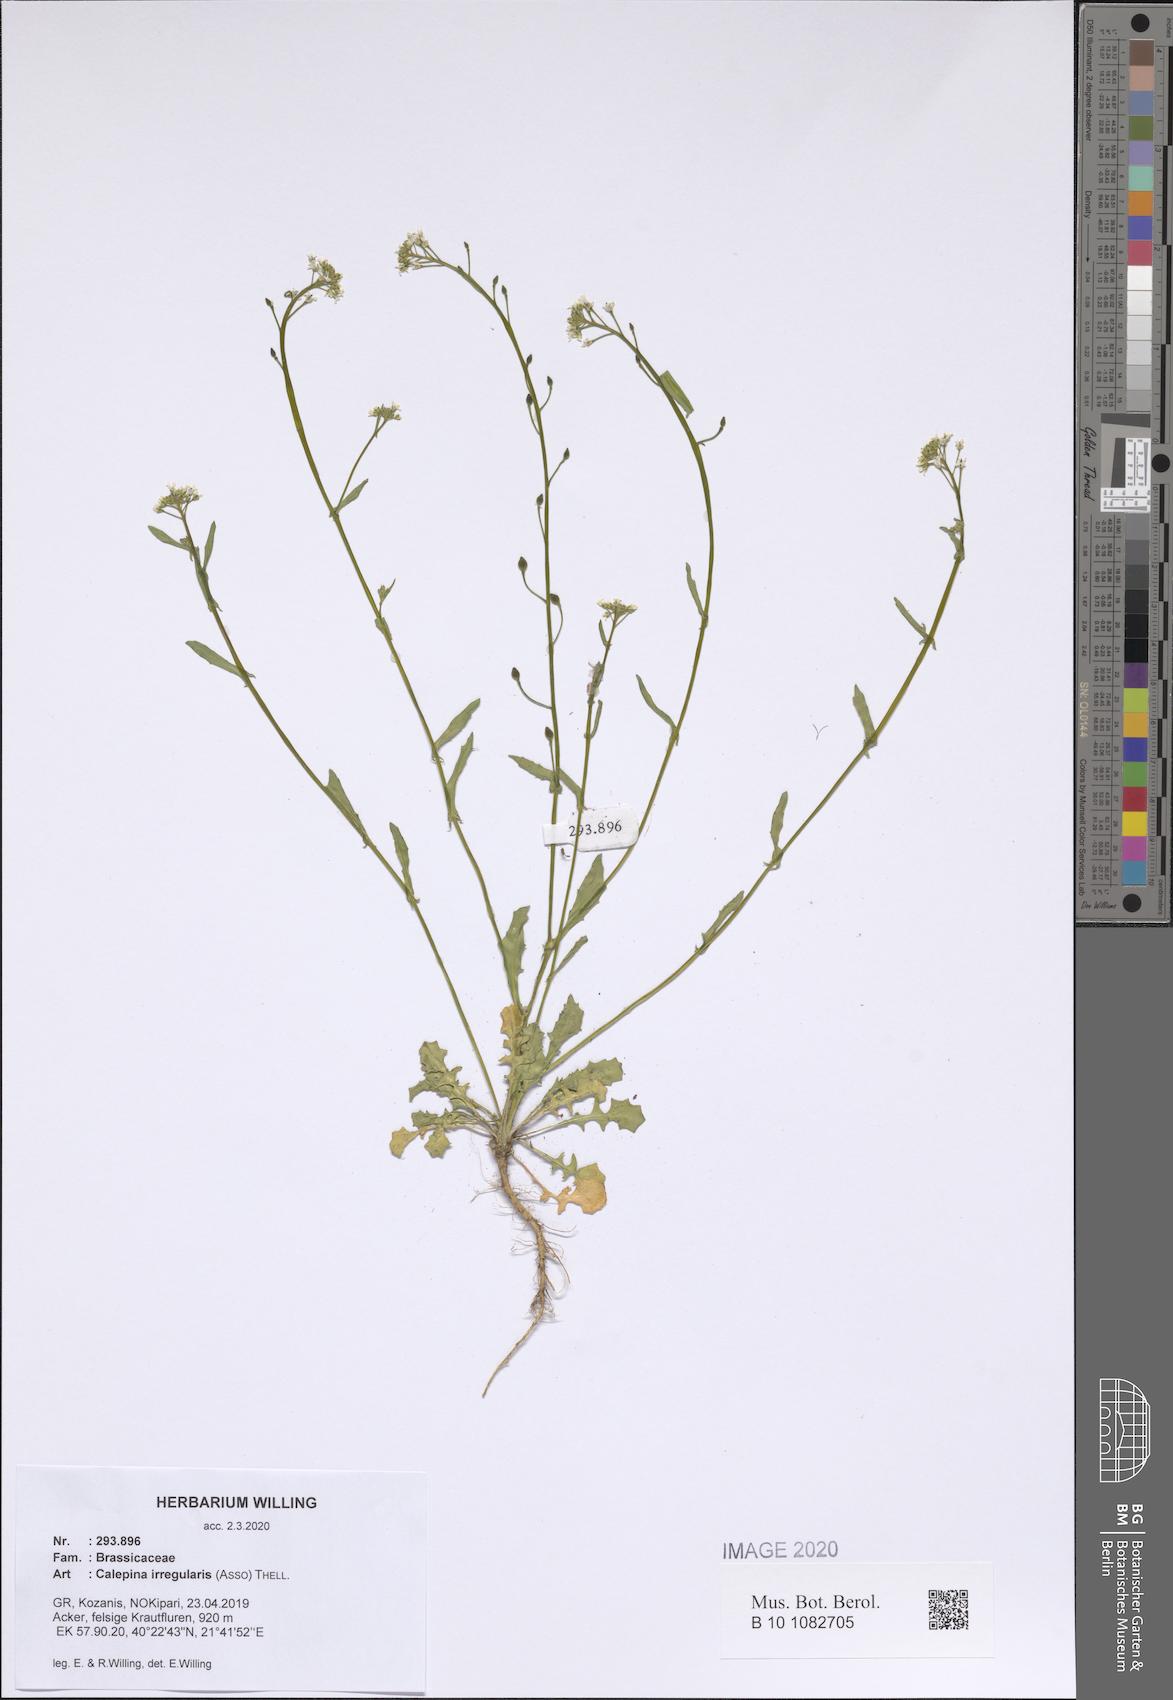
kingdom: Plantae
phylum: Tracheophyta
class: Magnoliopsida
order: Brassicales
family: Brassicaceae
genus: Calepina
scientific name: Calepina irregularis
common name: White ballmustard
